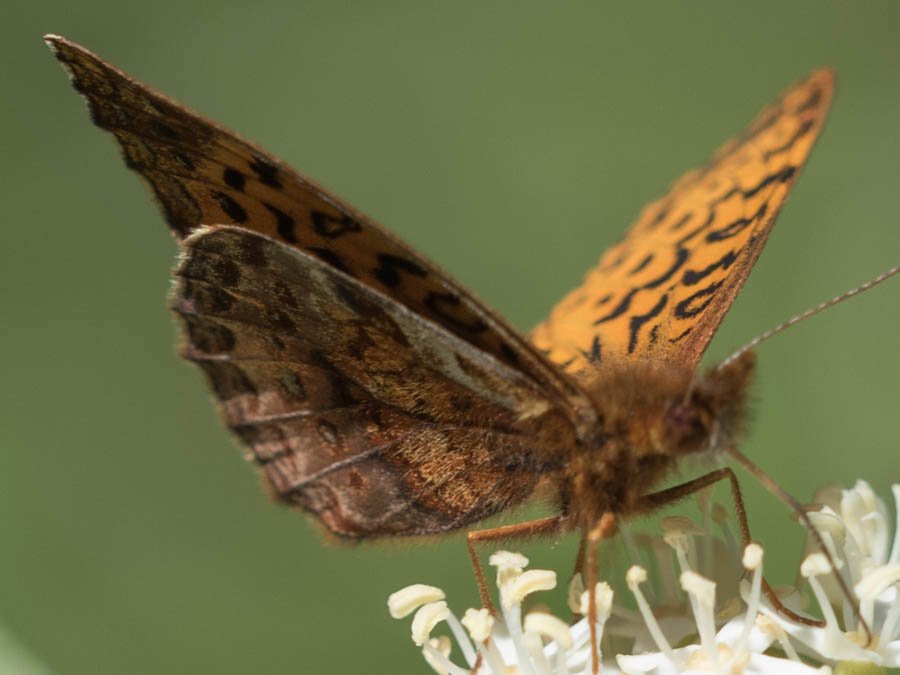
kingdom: Animalia
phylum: Arthropoda
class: Insecta
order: Lepidoptera
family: Nymphalidae
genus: Clossiana
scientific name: Clossiana toddi
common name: Meadow Fritillary
